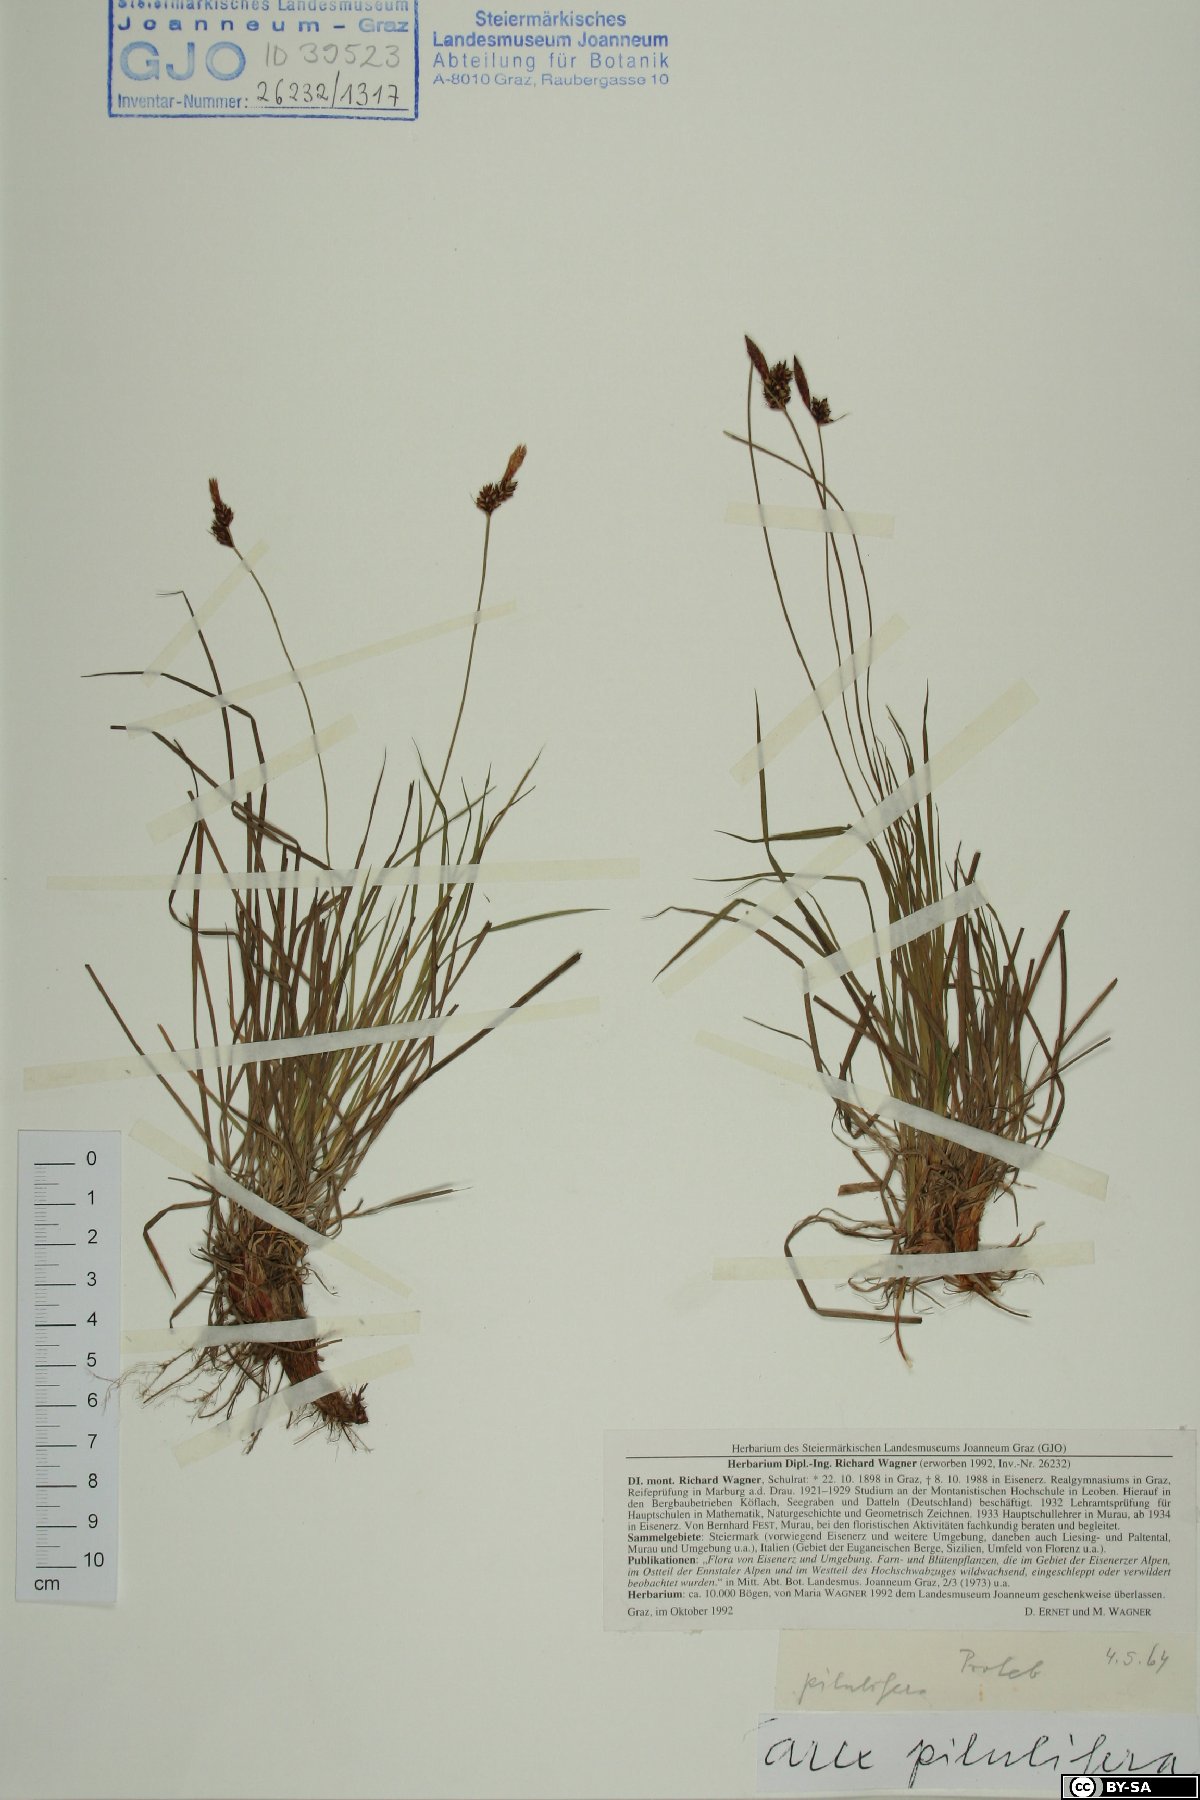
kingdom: Plantae
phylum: Tracheophyta
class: Liliopsida
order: Poales
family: Cyperaceae
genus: Carex
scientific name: Carex pilulifera
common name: Pill sedge
